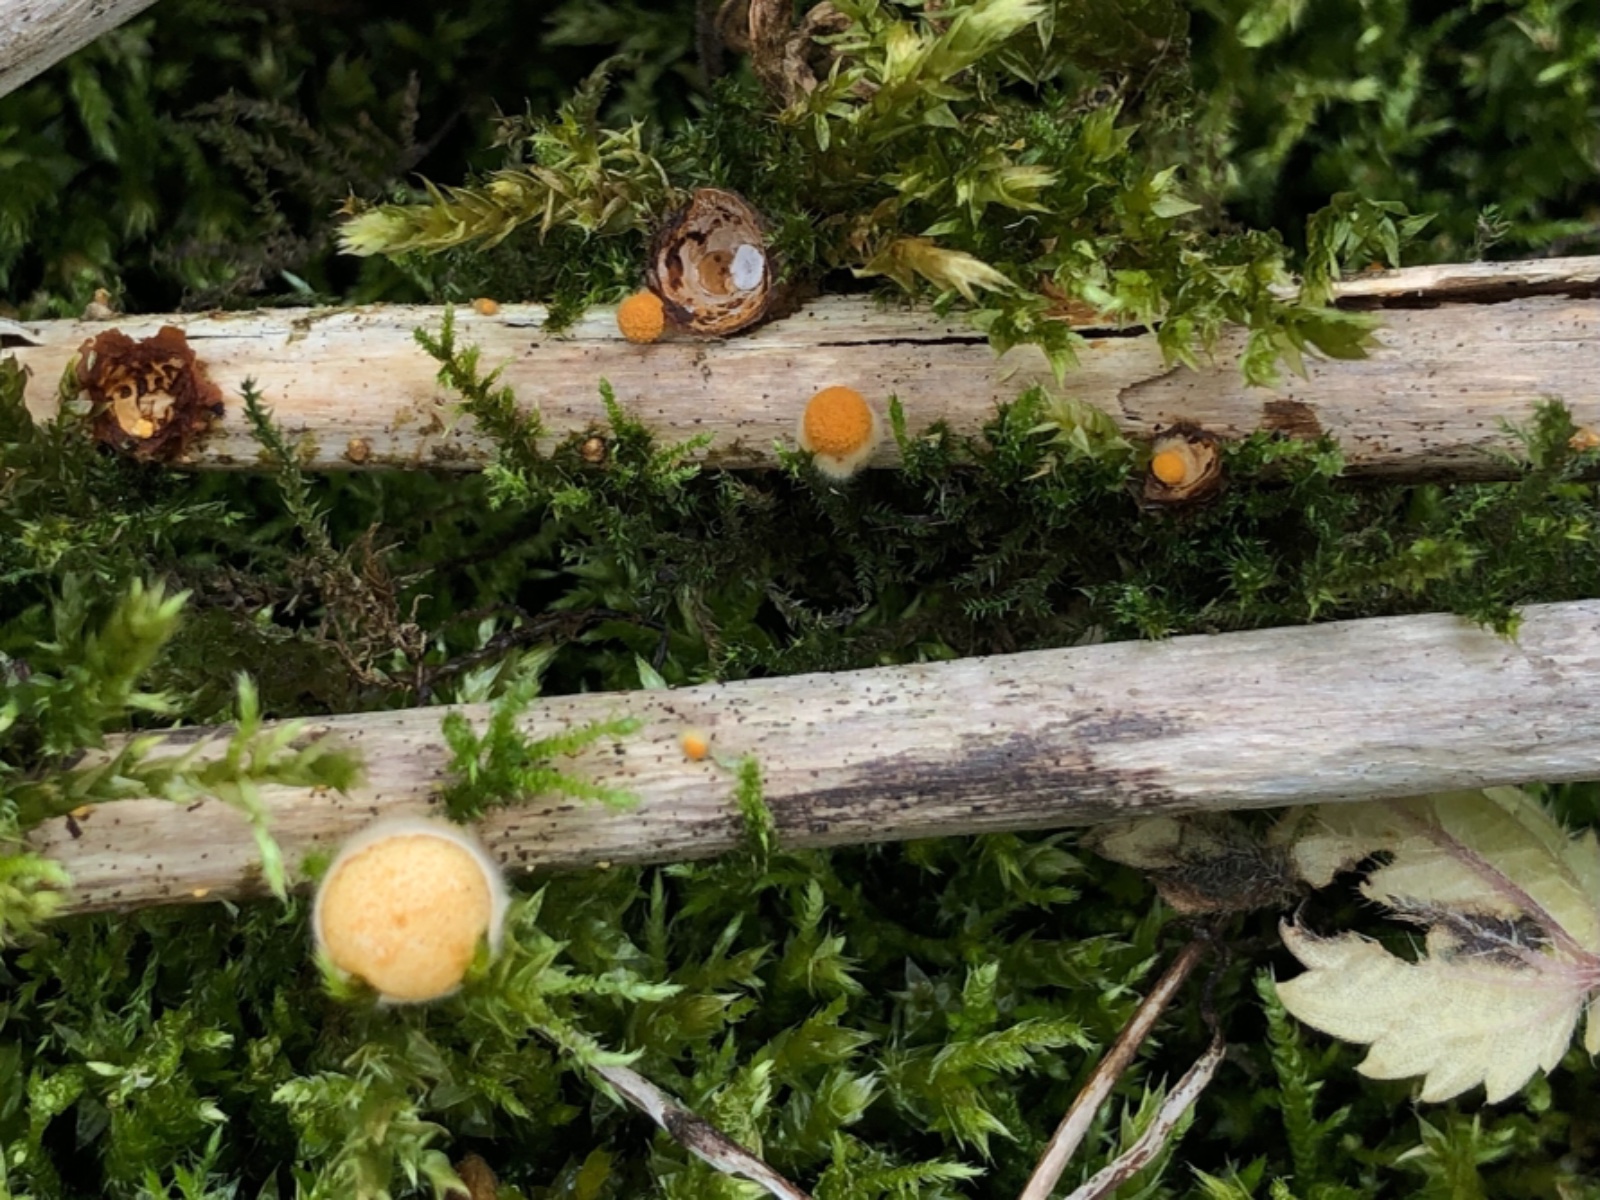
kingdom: Fungi
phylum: Basidiomycota
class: Agaricomycetes
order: Agaricales
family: Nidulariaceae
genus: Crucibulum
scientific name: Crucibulum crucibuliforme
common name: krukkesvamp
